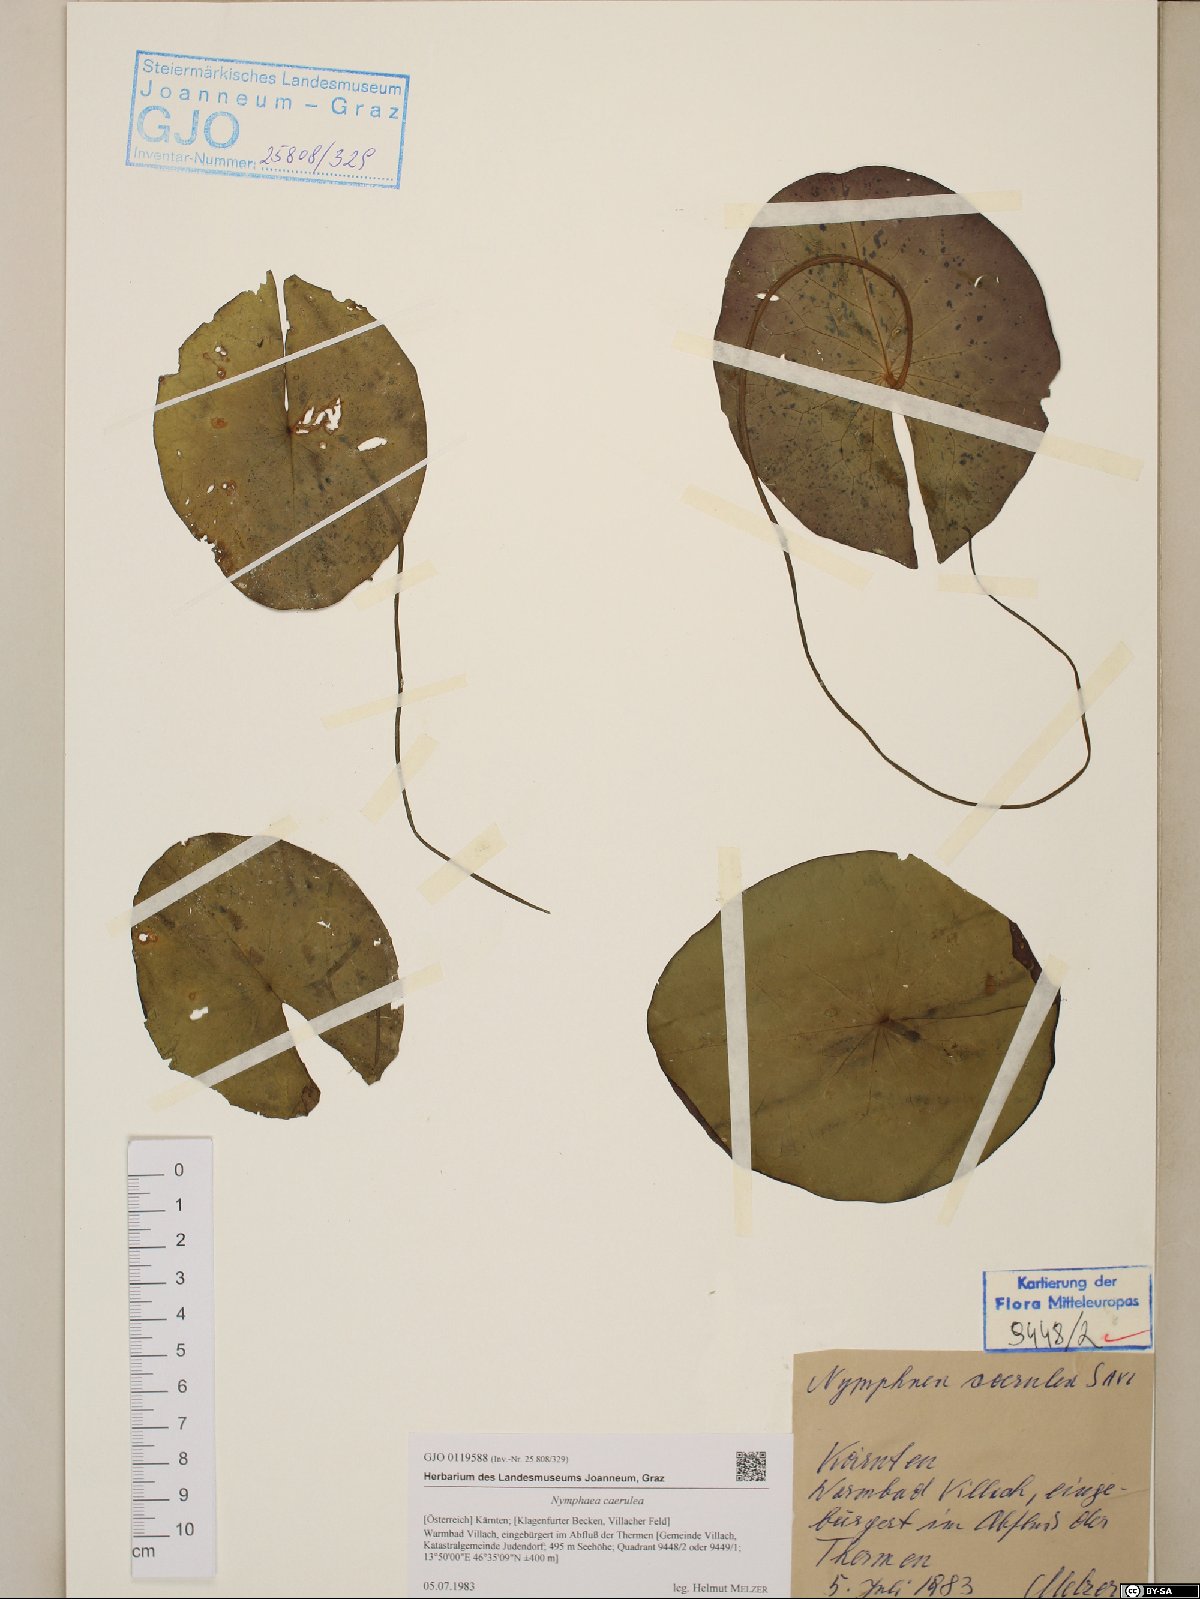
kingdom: Plantae
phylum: Tracheophyta
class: Magnoliopsida
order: Nymphaeales
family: Nymphaeaceae
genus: Nymphaea
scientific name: Nymphaea
